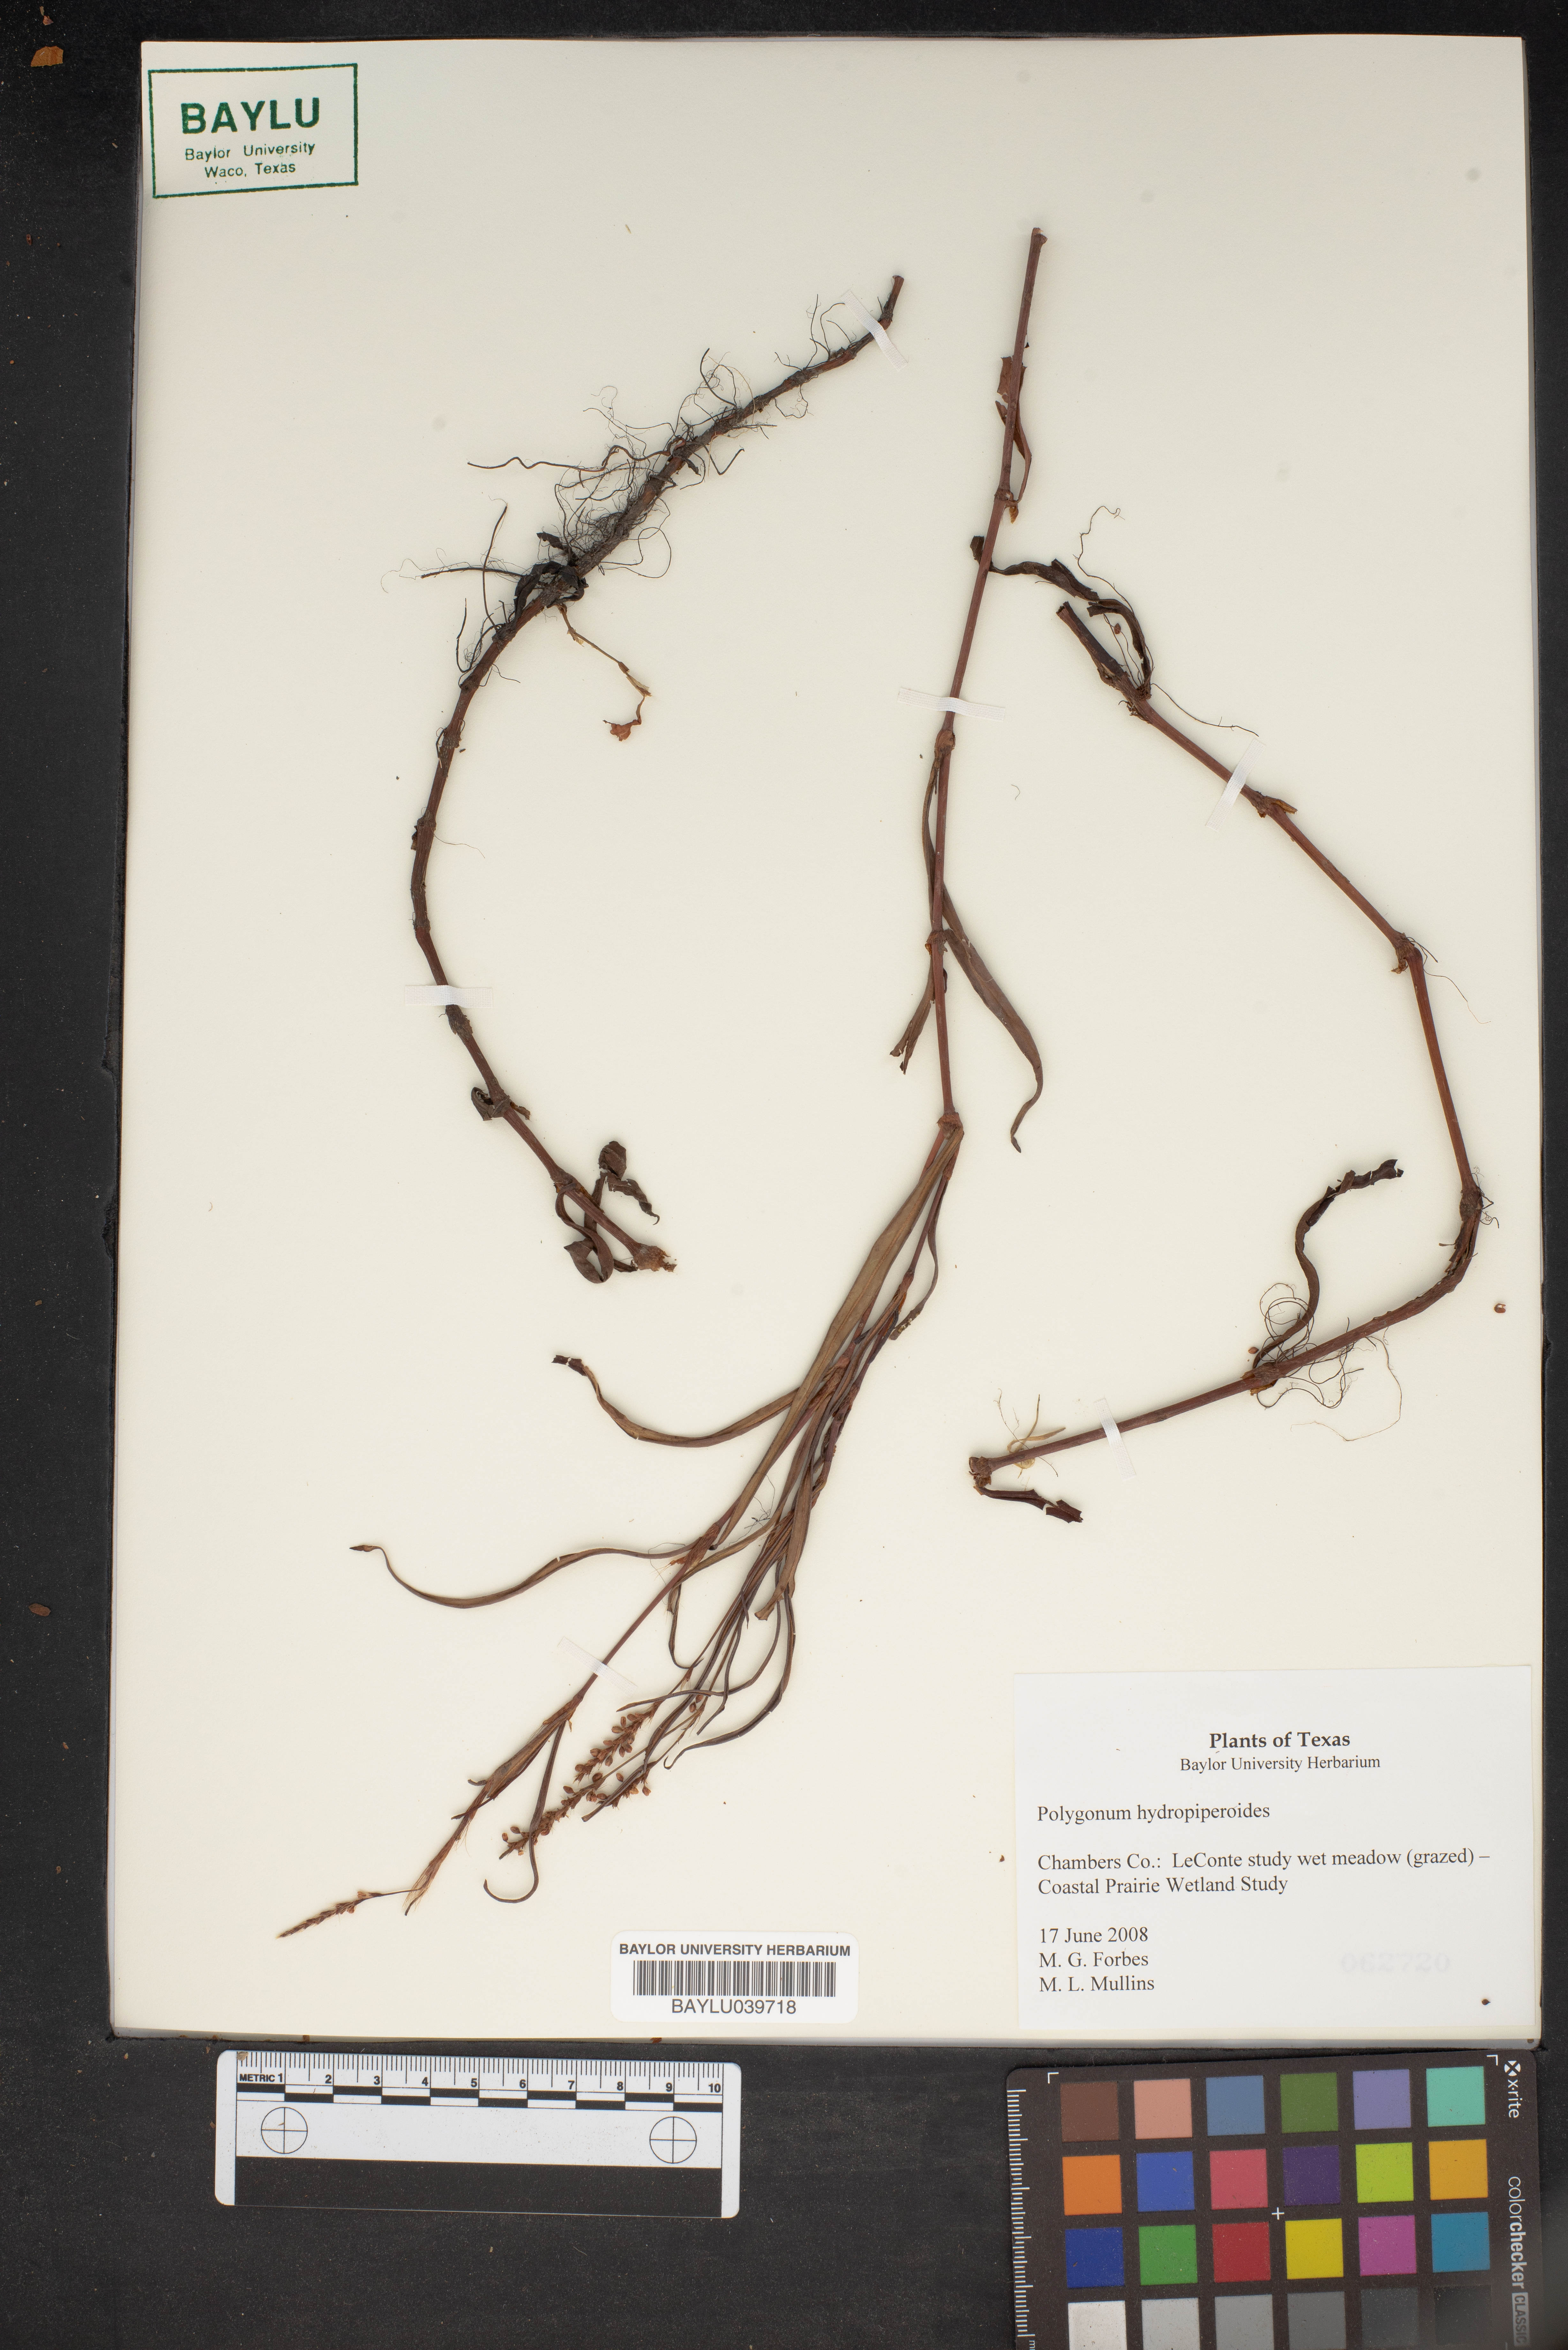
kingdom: Plantae
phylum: Tracheophyta
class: Magnoliopsida
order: Caryophyllales
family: Polygonaceae
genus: Persicaria
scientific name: Persicaria hydropiperoides
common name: Swamp smartweed
